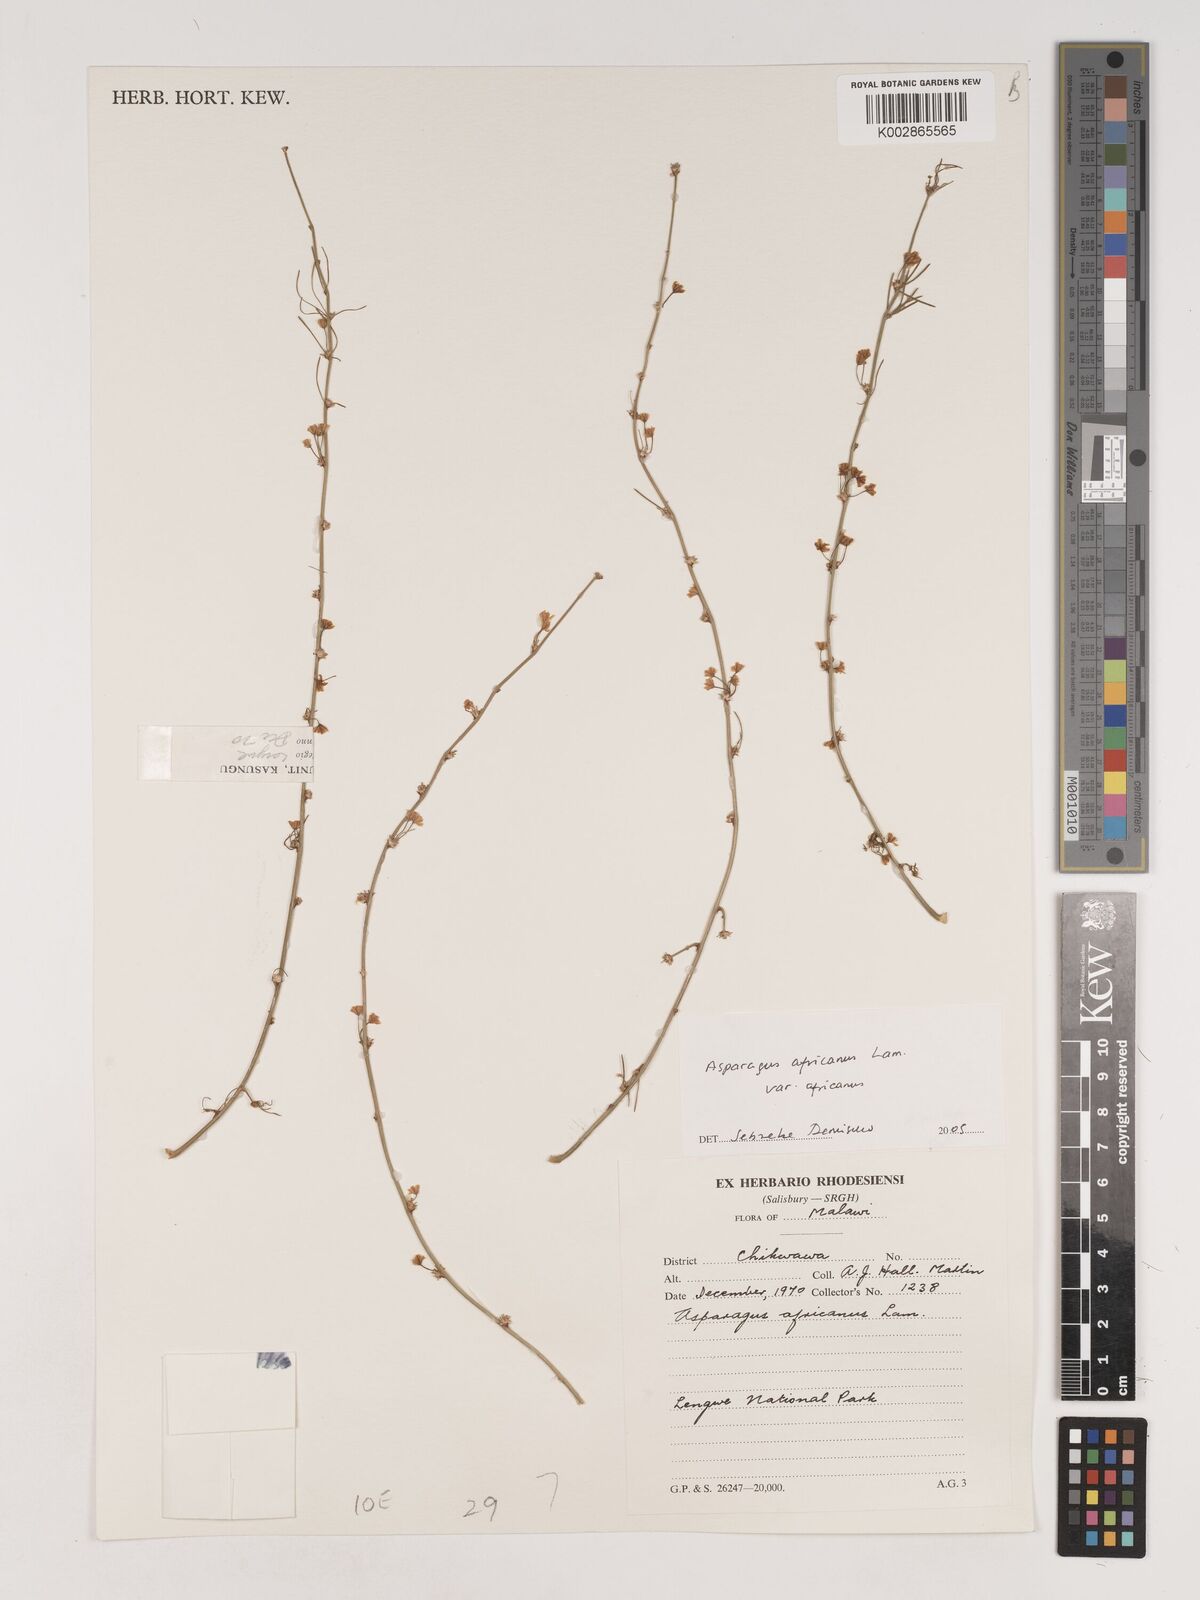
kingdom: Plantae
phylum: Tracheophyta
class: Liliopsida
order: Asparagales
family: Asparagaceae
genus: Asparagus
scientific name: Asparagus africanus
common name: Asparagus-fern
